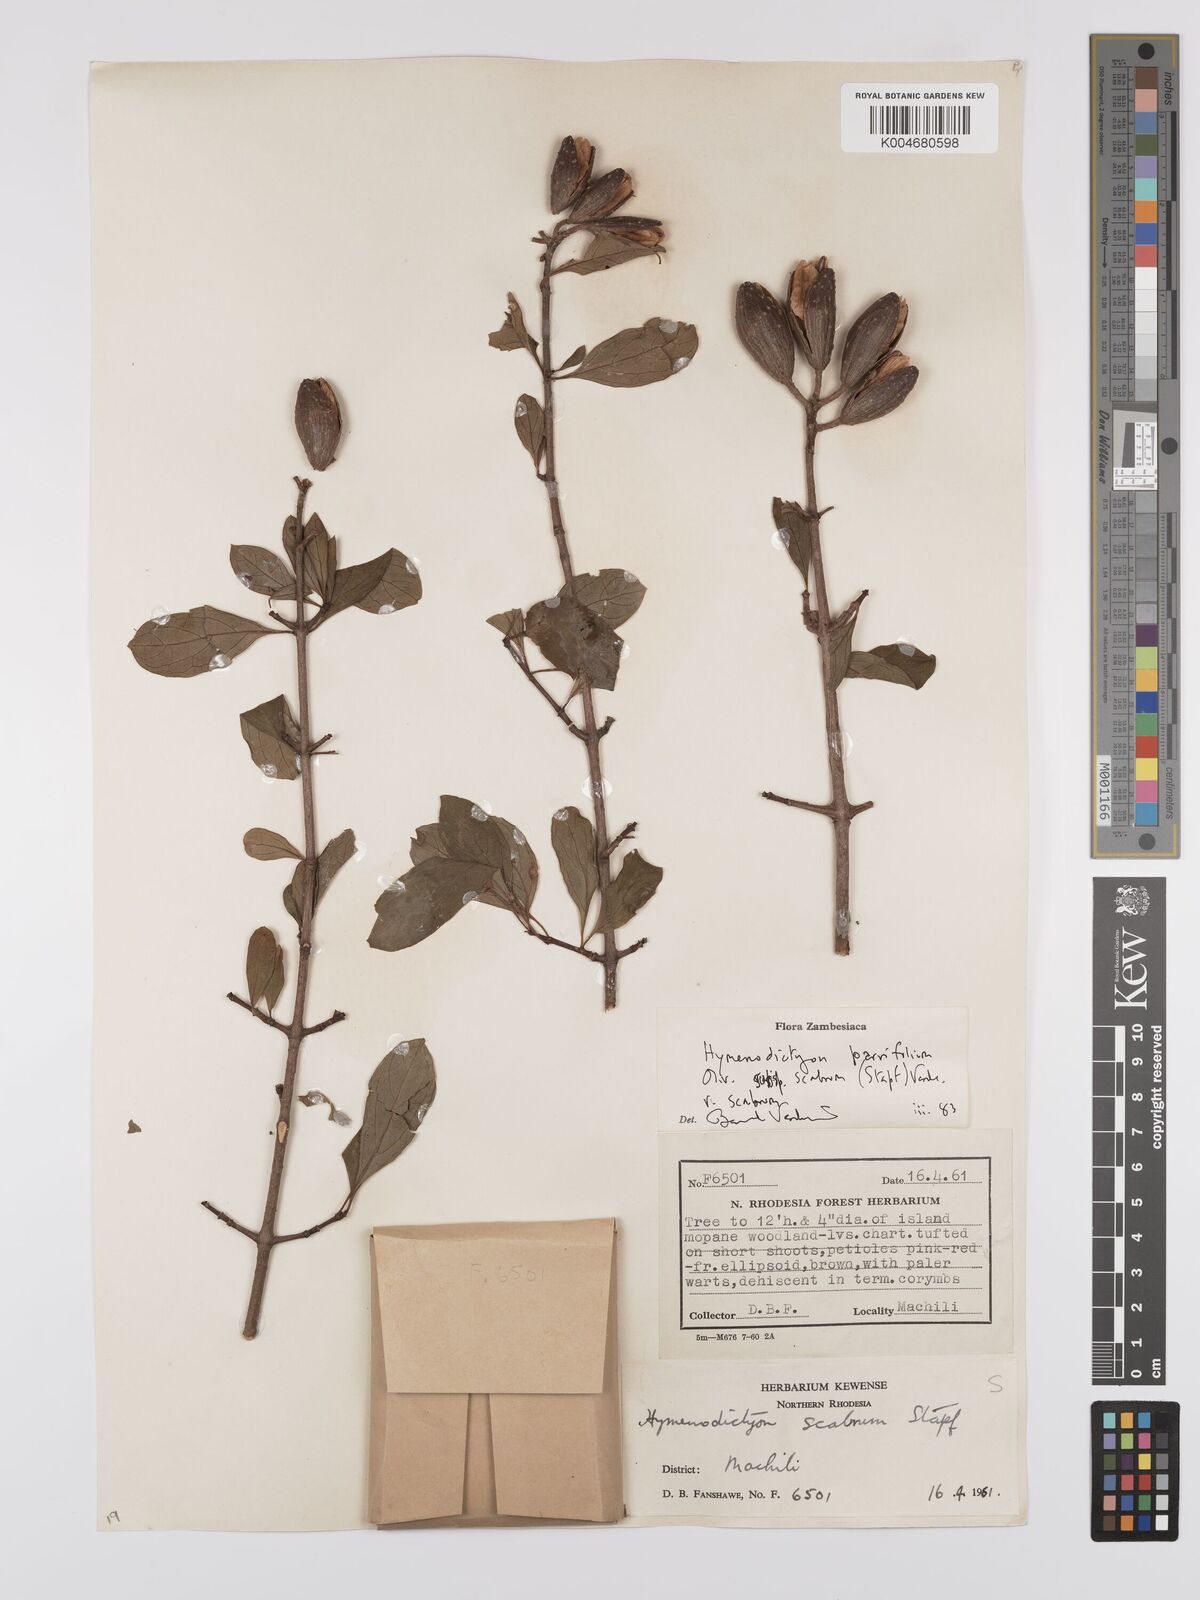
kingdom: Plantae
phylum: Tracheophyta
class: Magnoliopsida
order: Gentianales
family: Rubiaceae
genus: Hymenodictyon
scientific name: Hymenodictyon scabrum
